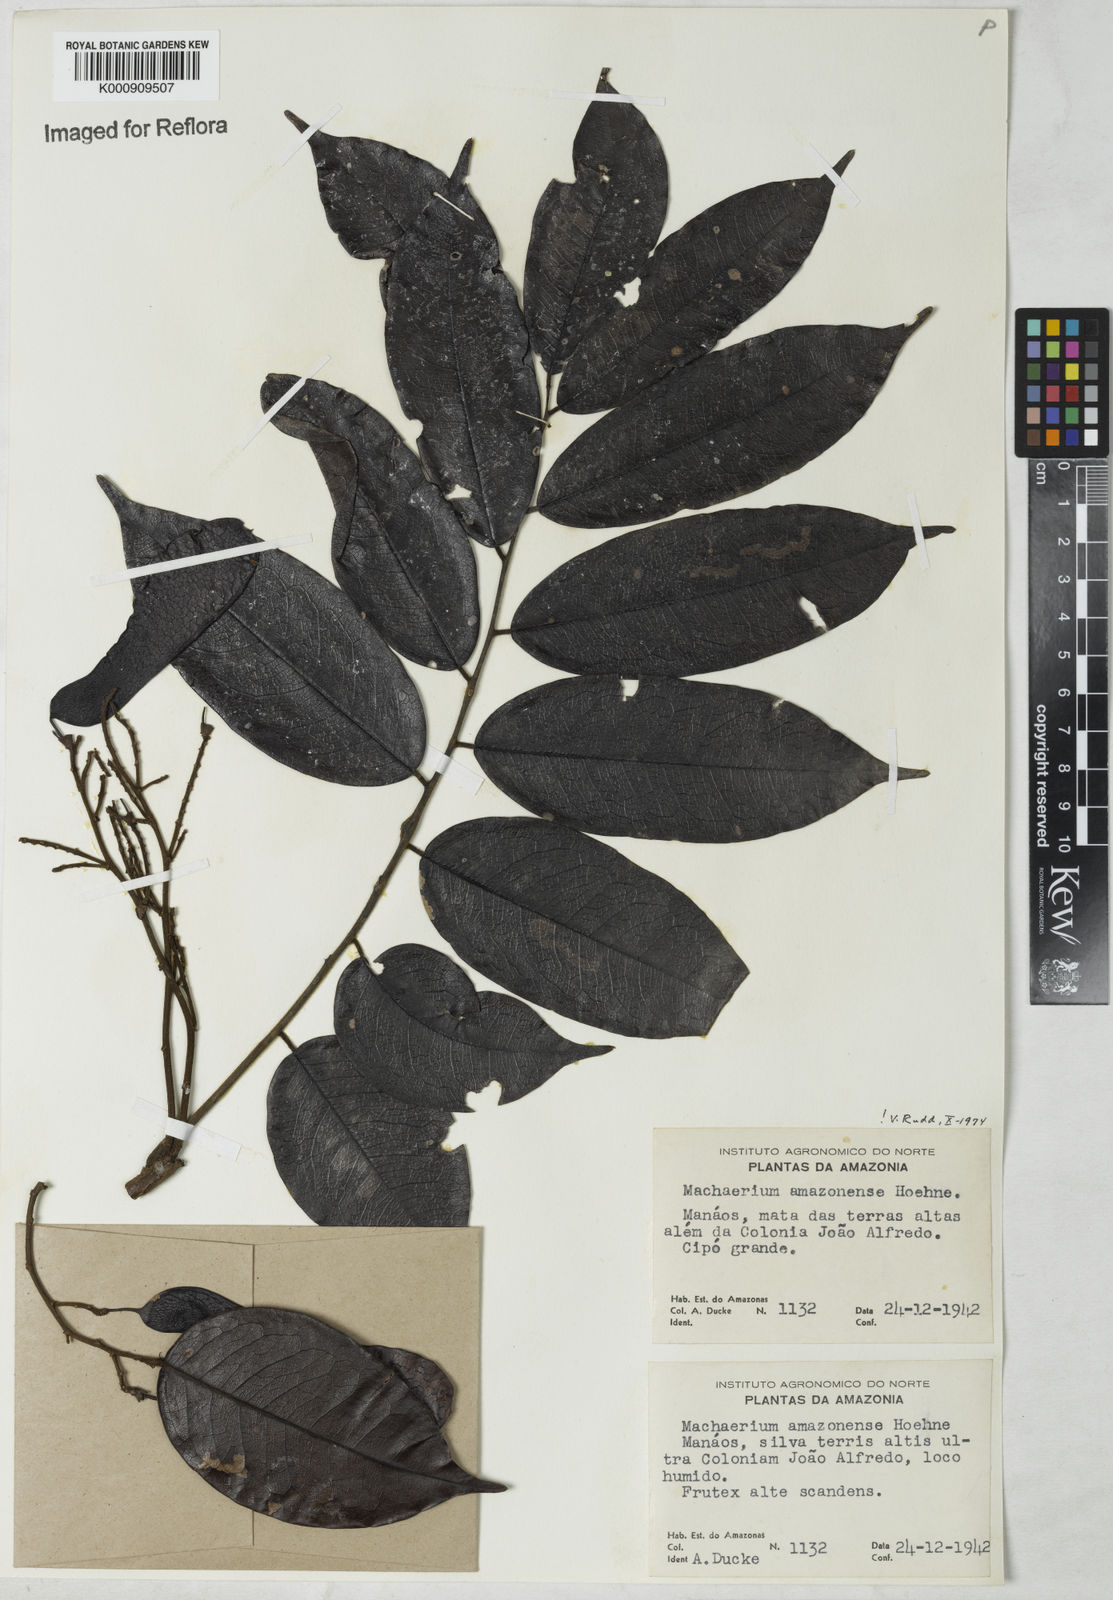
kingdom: Plantae
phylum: Tracheophyta
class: Magnoliopsida
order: Fabales
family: Fabaceae
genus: Machaerium
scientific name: Machaerium amazonense
